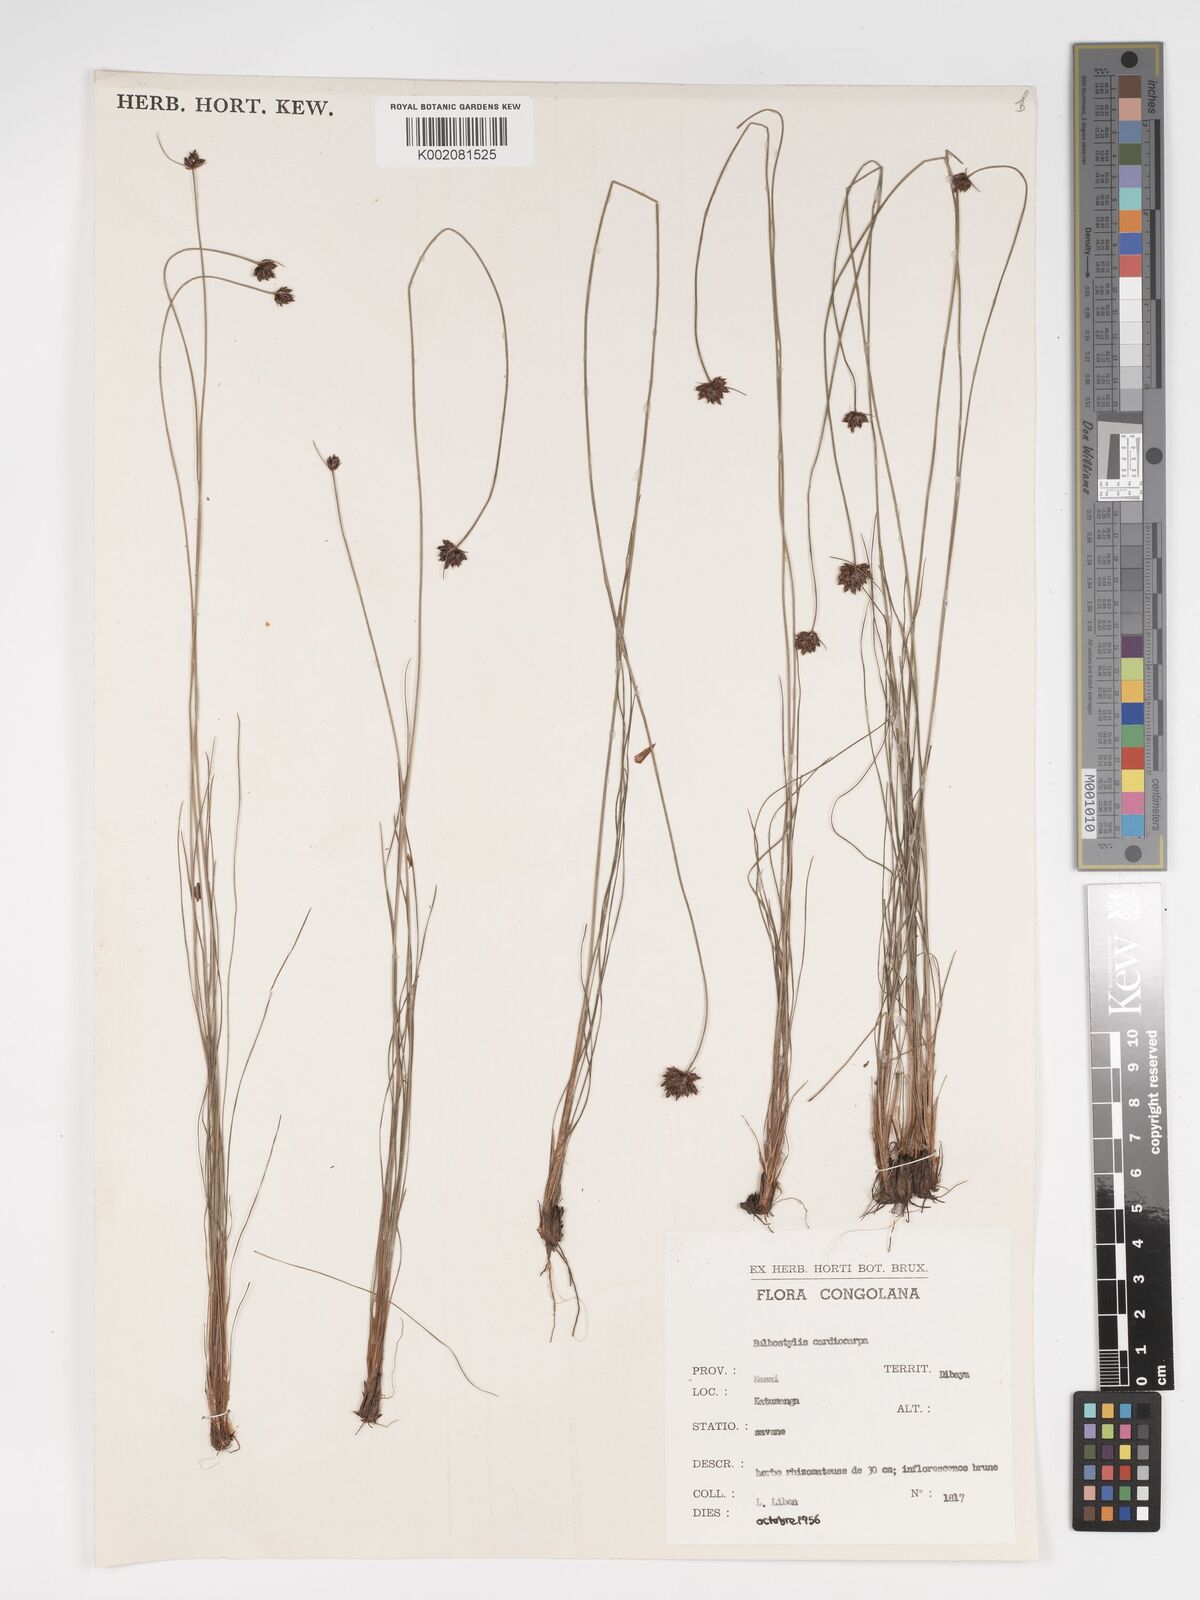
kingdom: Plantae
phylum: Tracheophyta
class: Liliopsida
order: Poales
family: Cyperaceae
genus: Bulbostylis
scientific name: Bulbostylis scabricaulis
